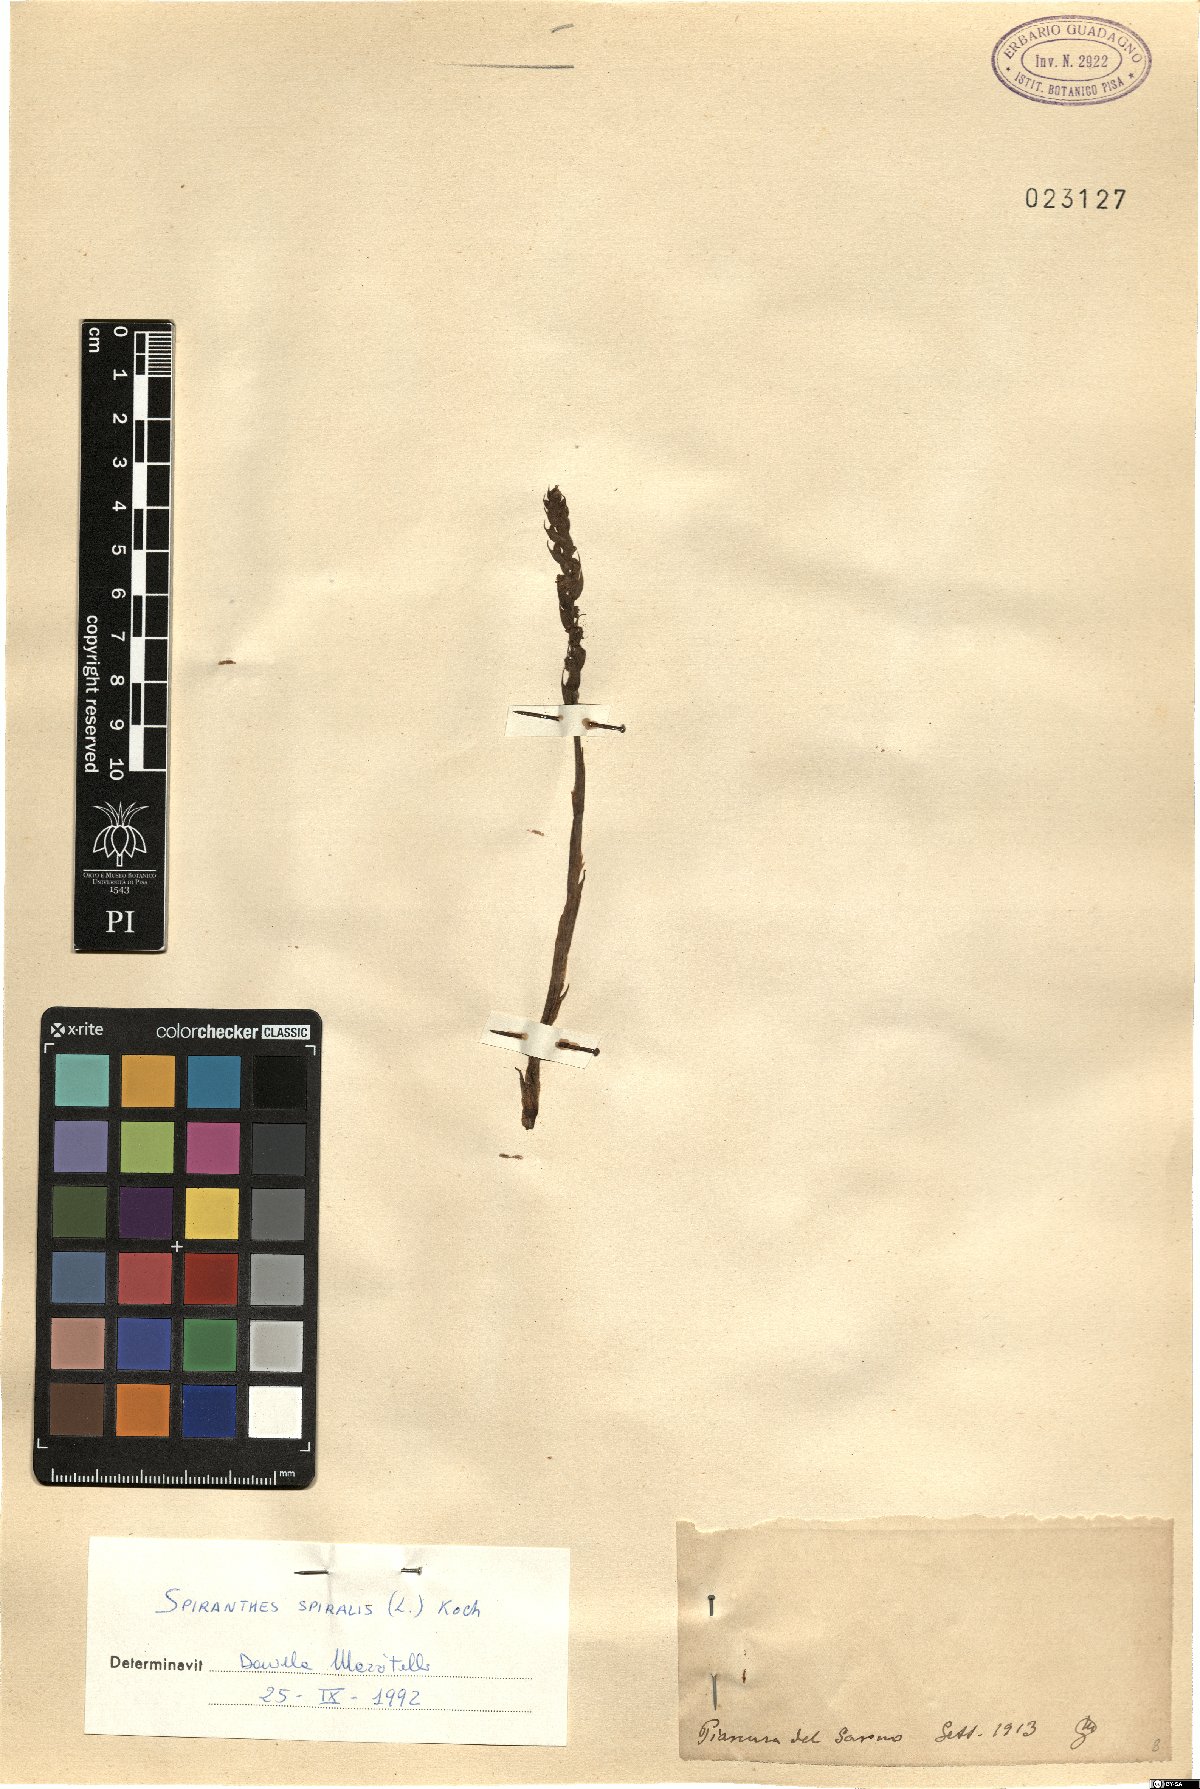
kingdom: Plantae
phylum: Tracheophyta
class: Liliopsida
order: Asparagales
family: Orchidaceae
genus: Spiranthes
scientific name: Spiranthes spiralis
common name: Autumn lady's-tresses
